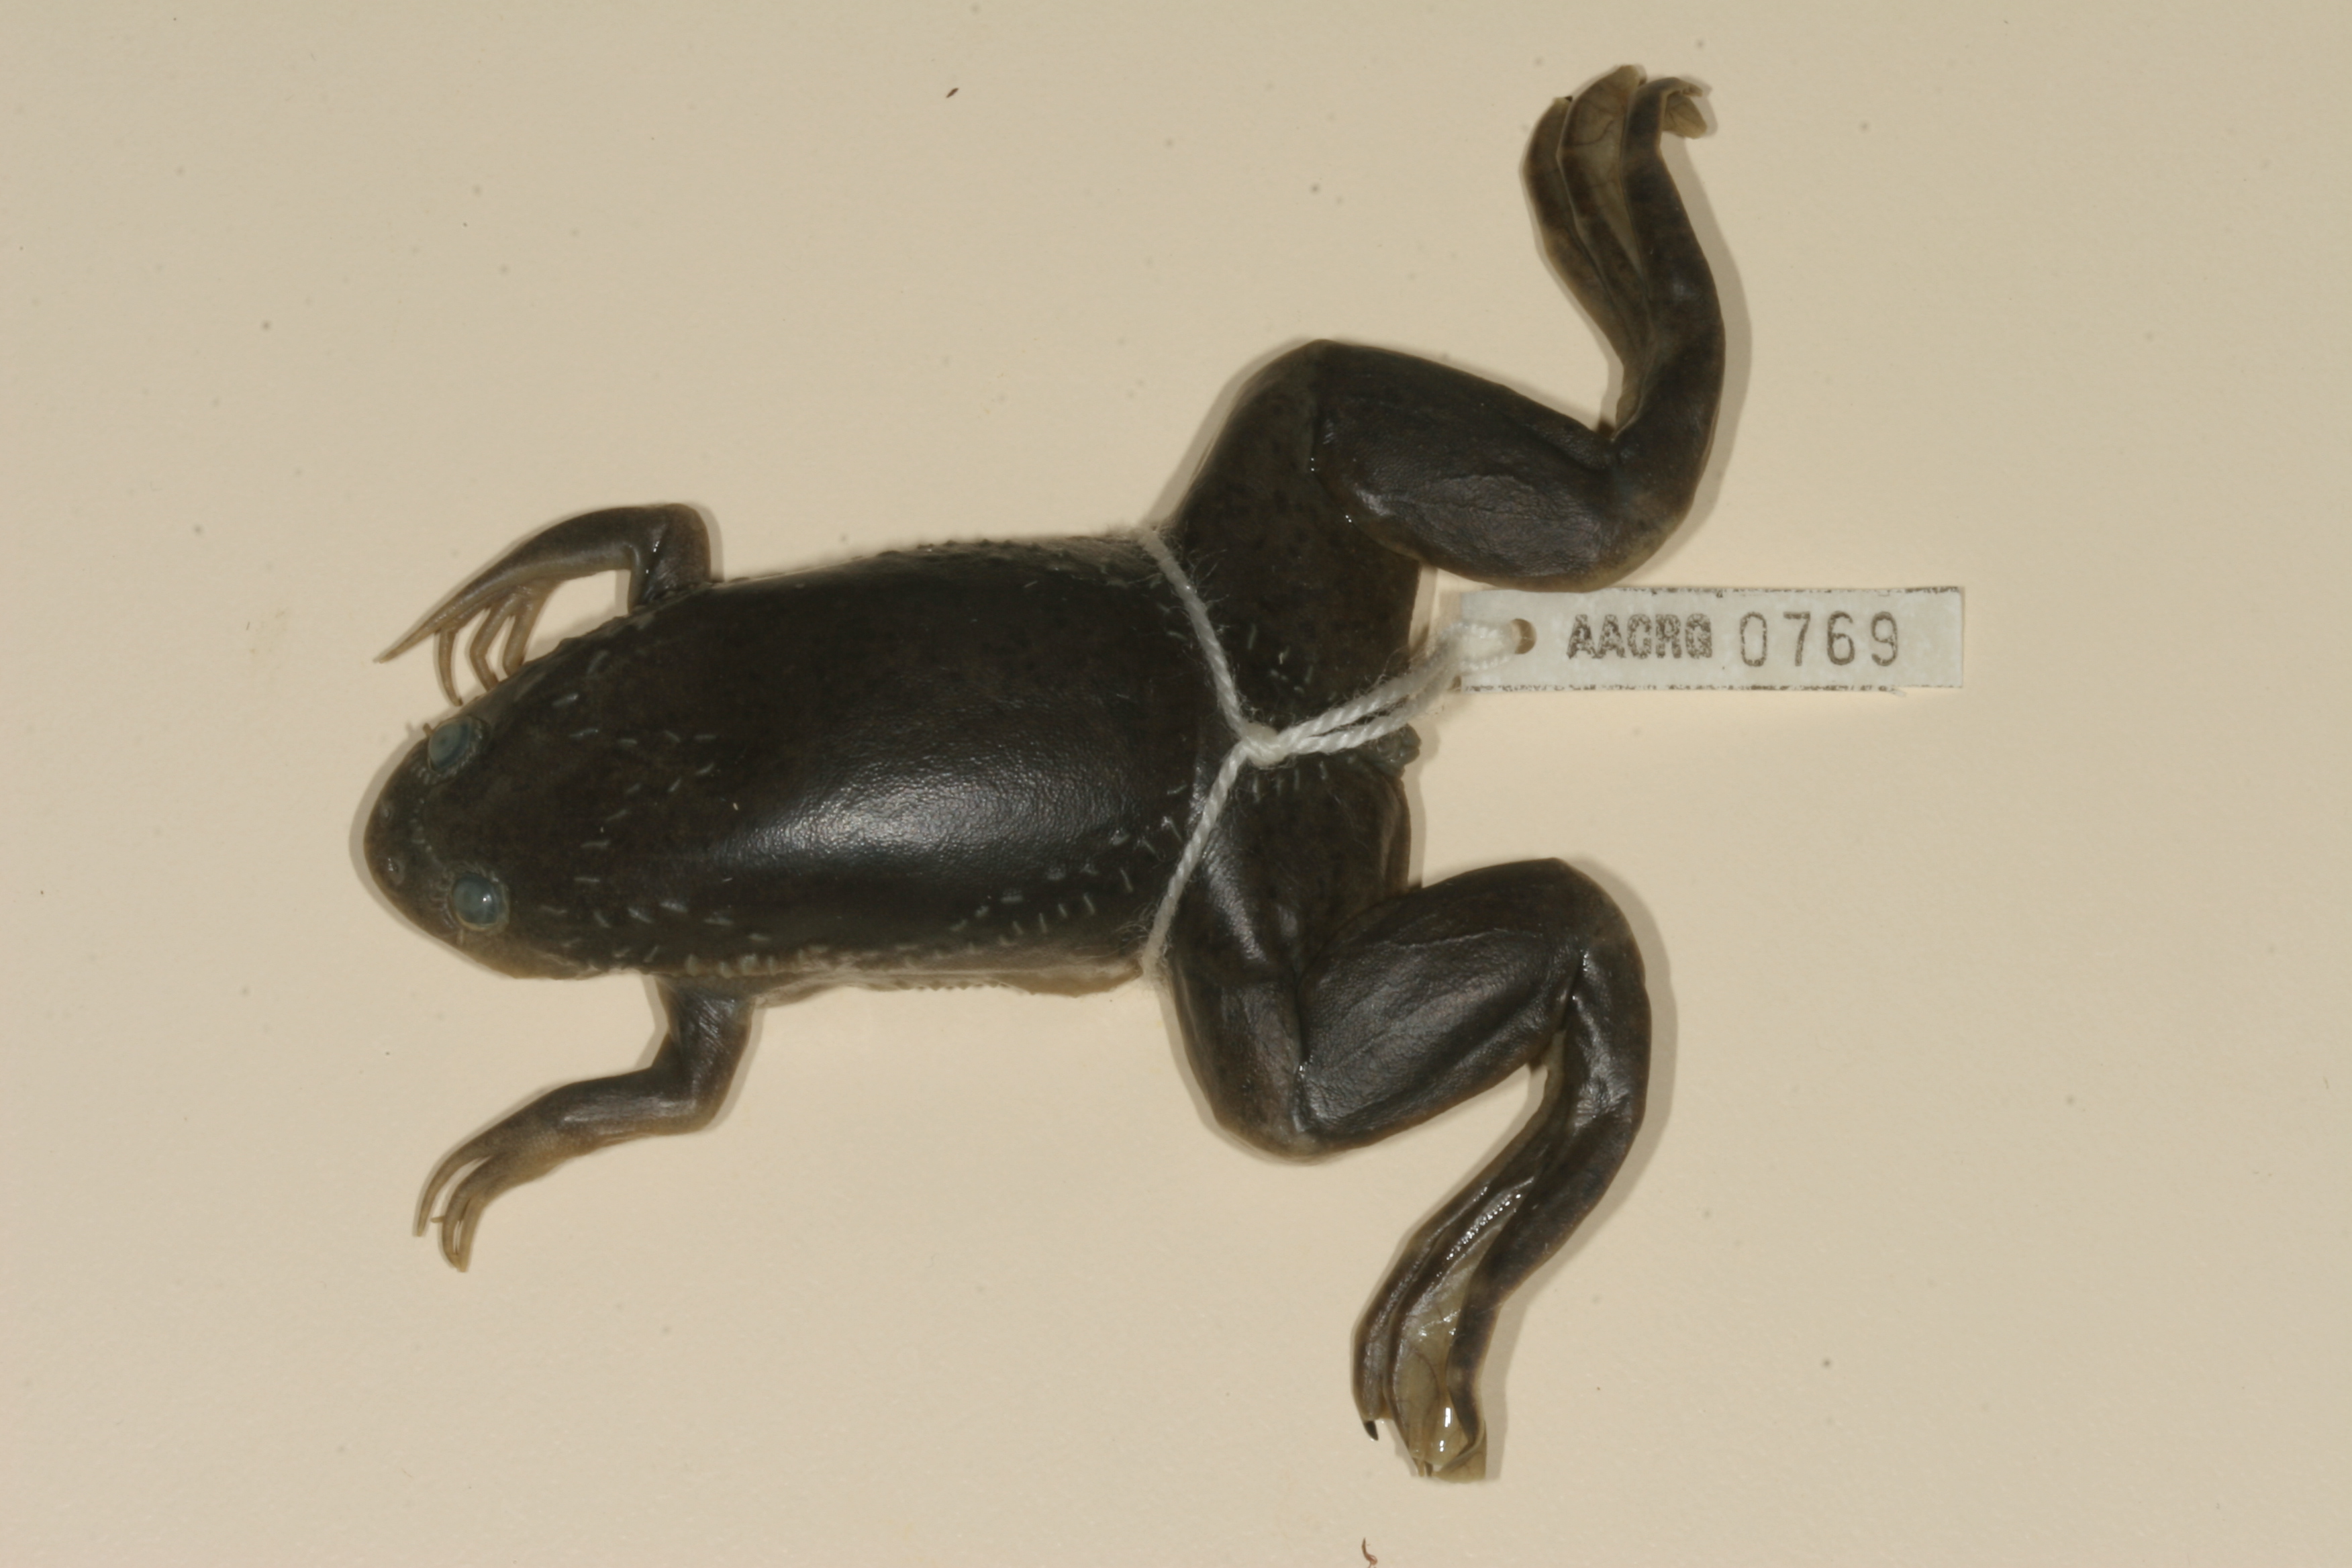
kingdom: Animalia
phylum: Chordata
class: Amphibia
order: Anura
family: Pipidae
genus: Xenopus
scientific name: Xenopus laevis
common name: African clawed frog
